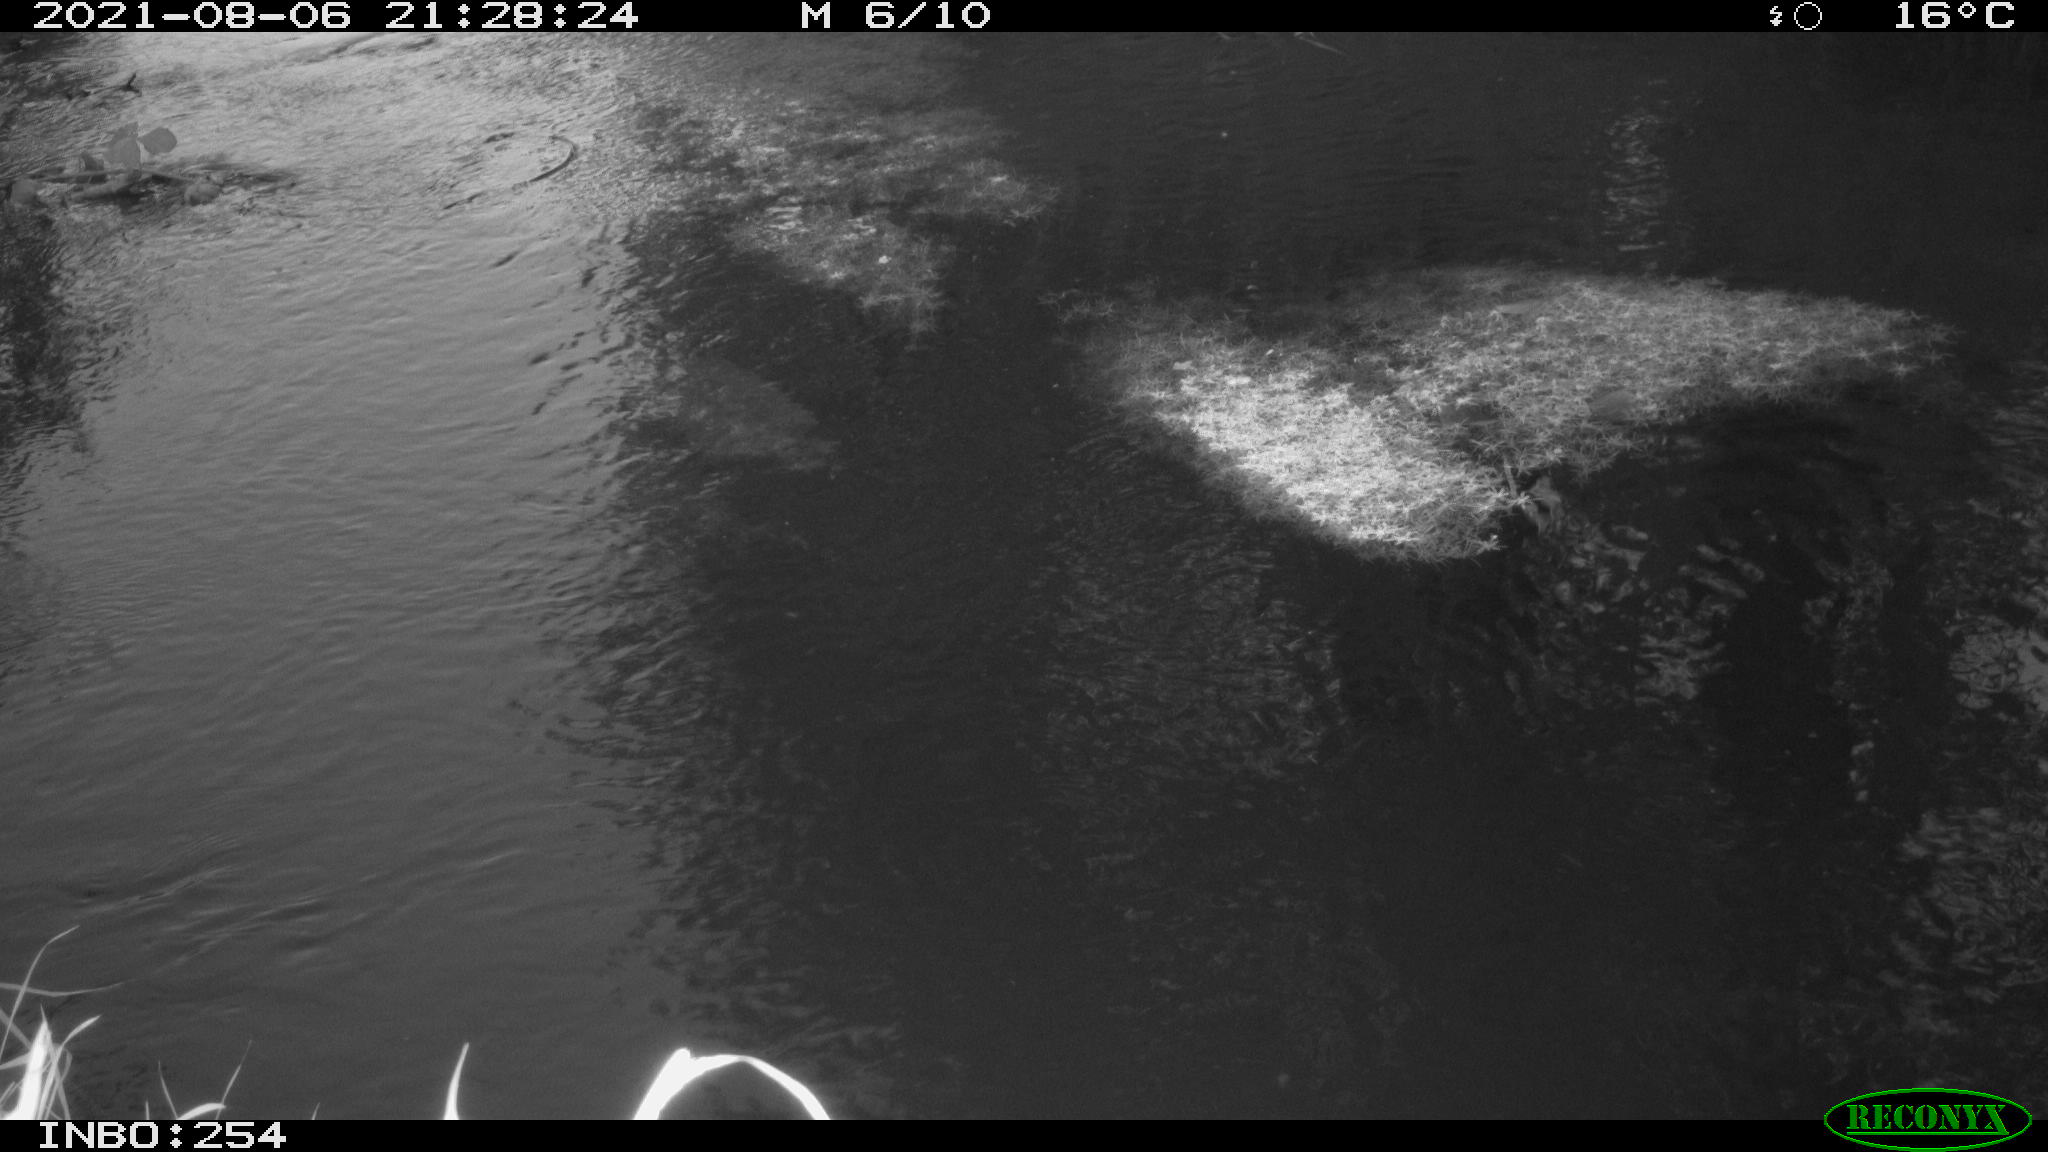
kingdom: Animalia
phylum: Chordata
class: Aves
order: Gruiformes
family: Rallidae
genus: Fulica
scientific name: Fulica atra
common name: Eurasian coot
